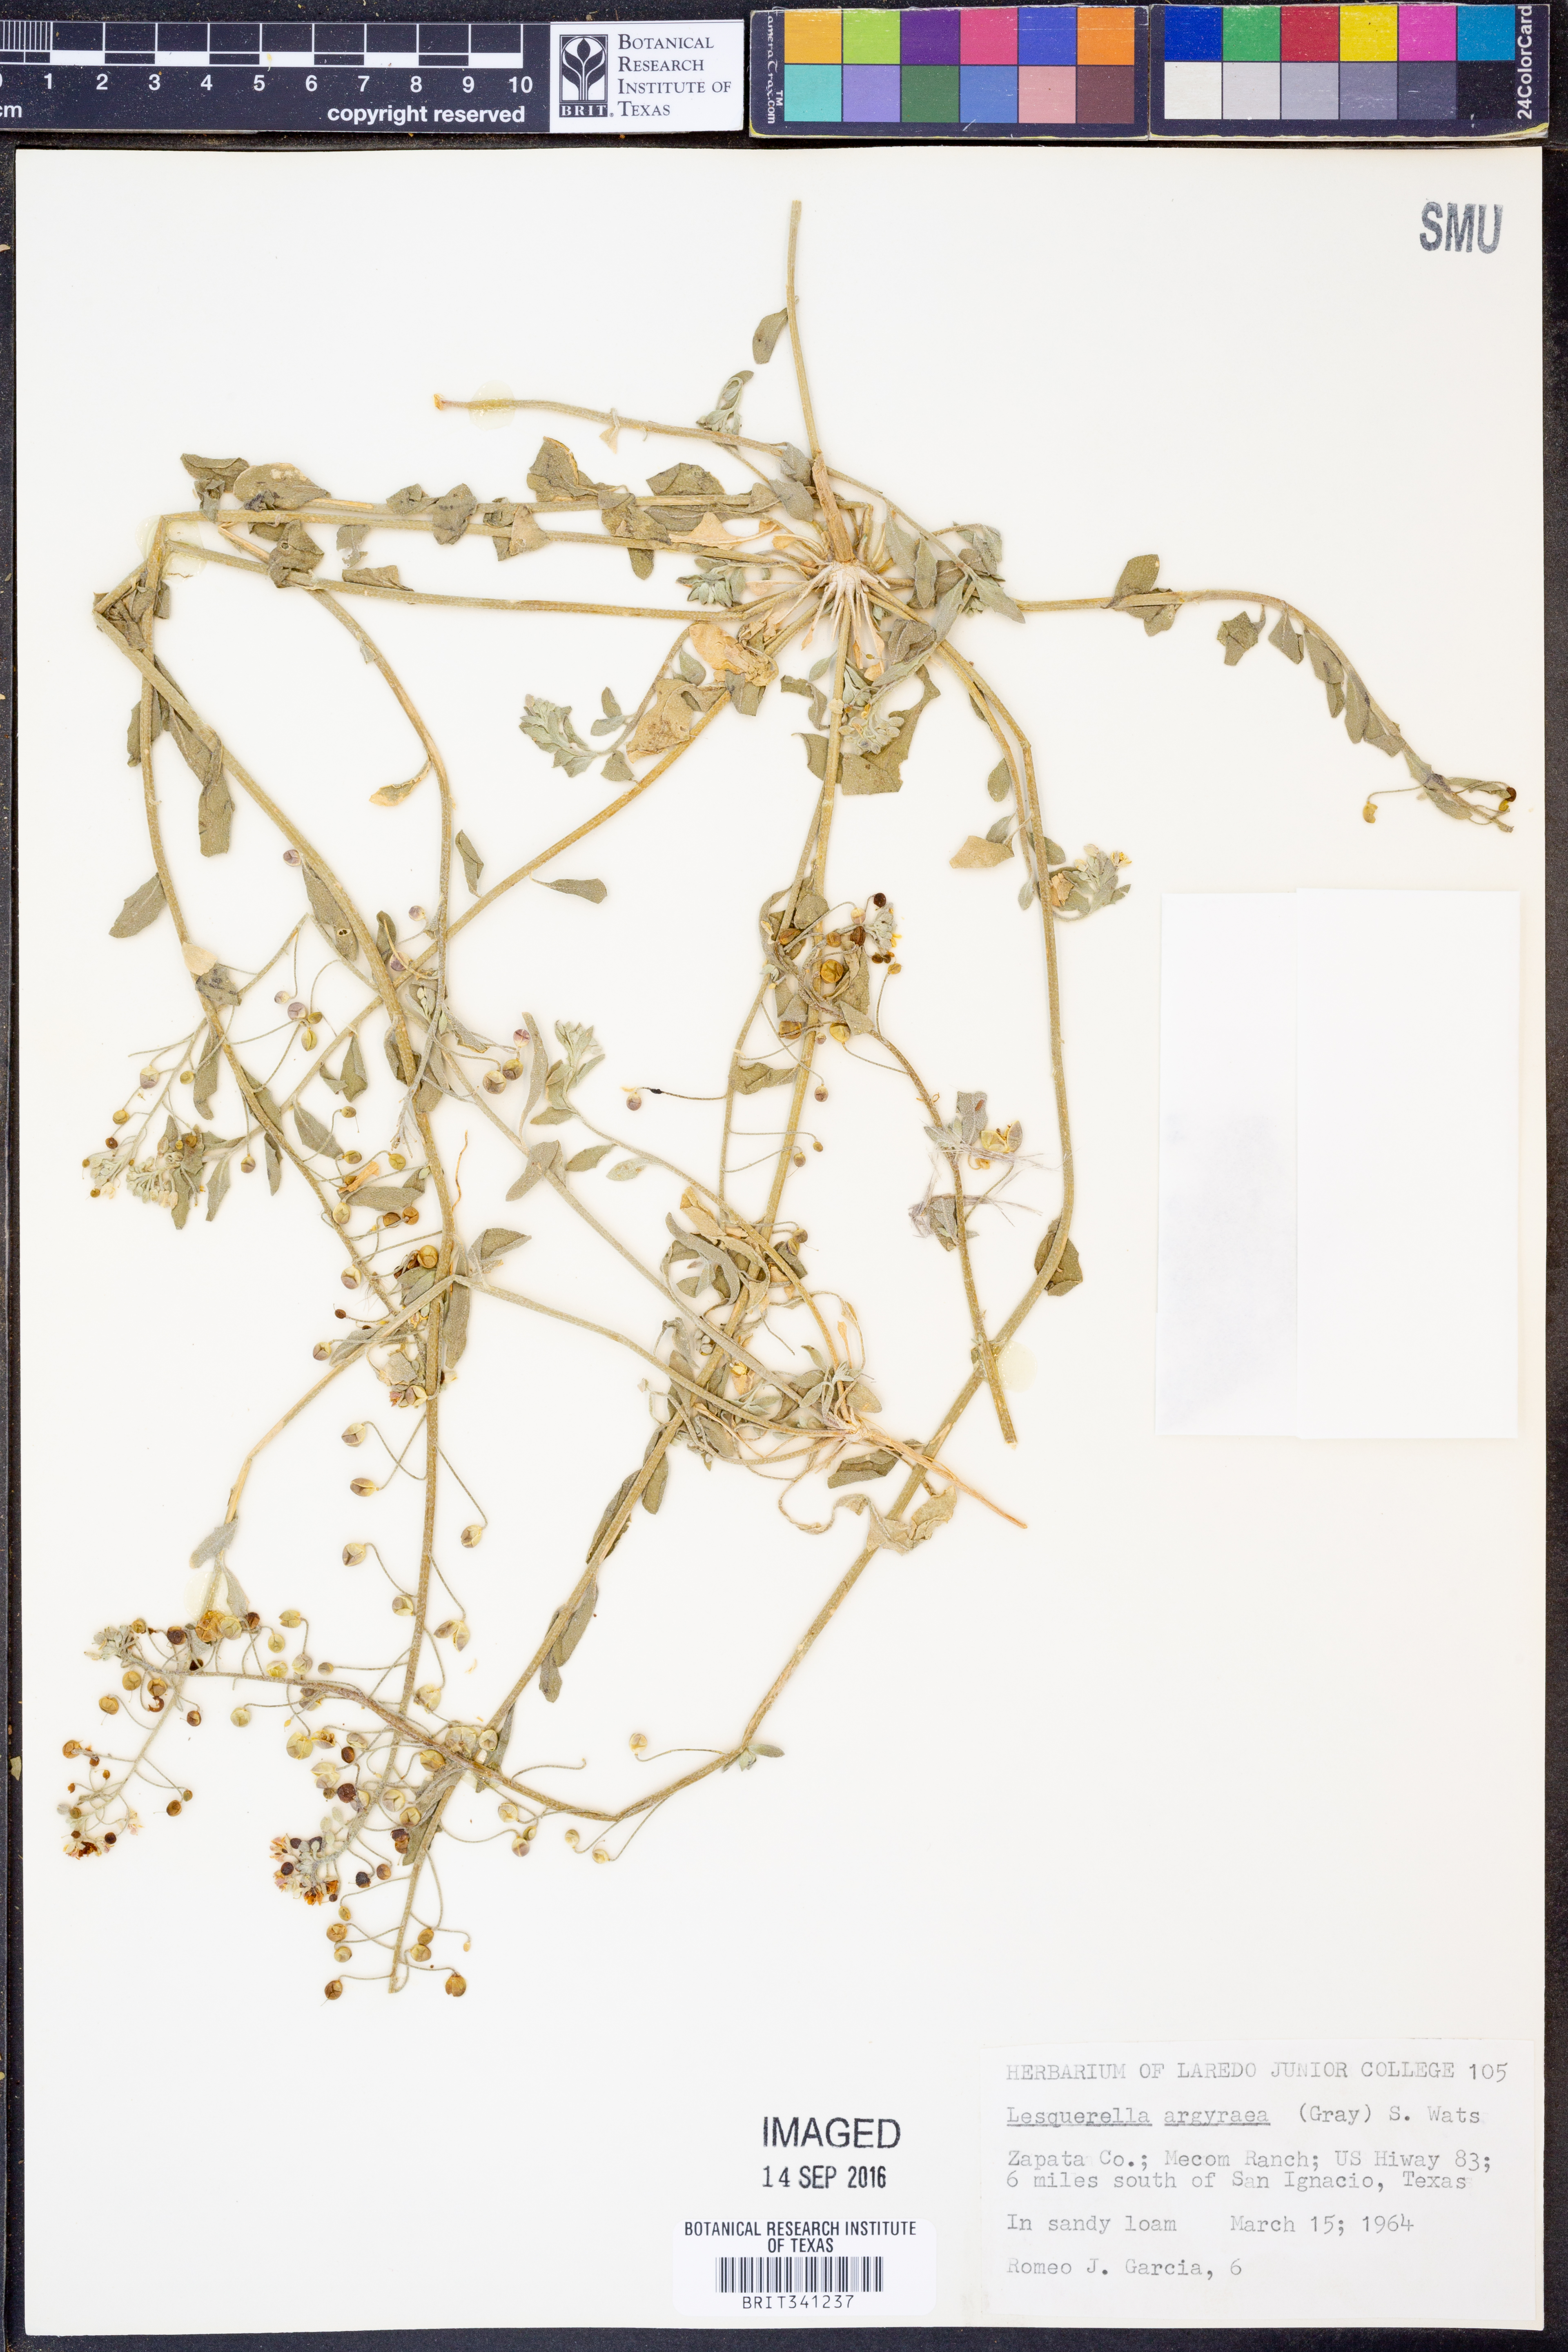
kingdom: Plantae
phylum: Tracheophyta
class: Magnoliopsida
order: Brassicales
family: Brassicaceae
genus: Physaria
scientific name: Physaria argyraea
